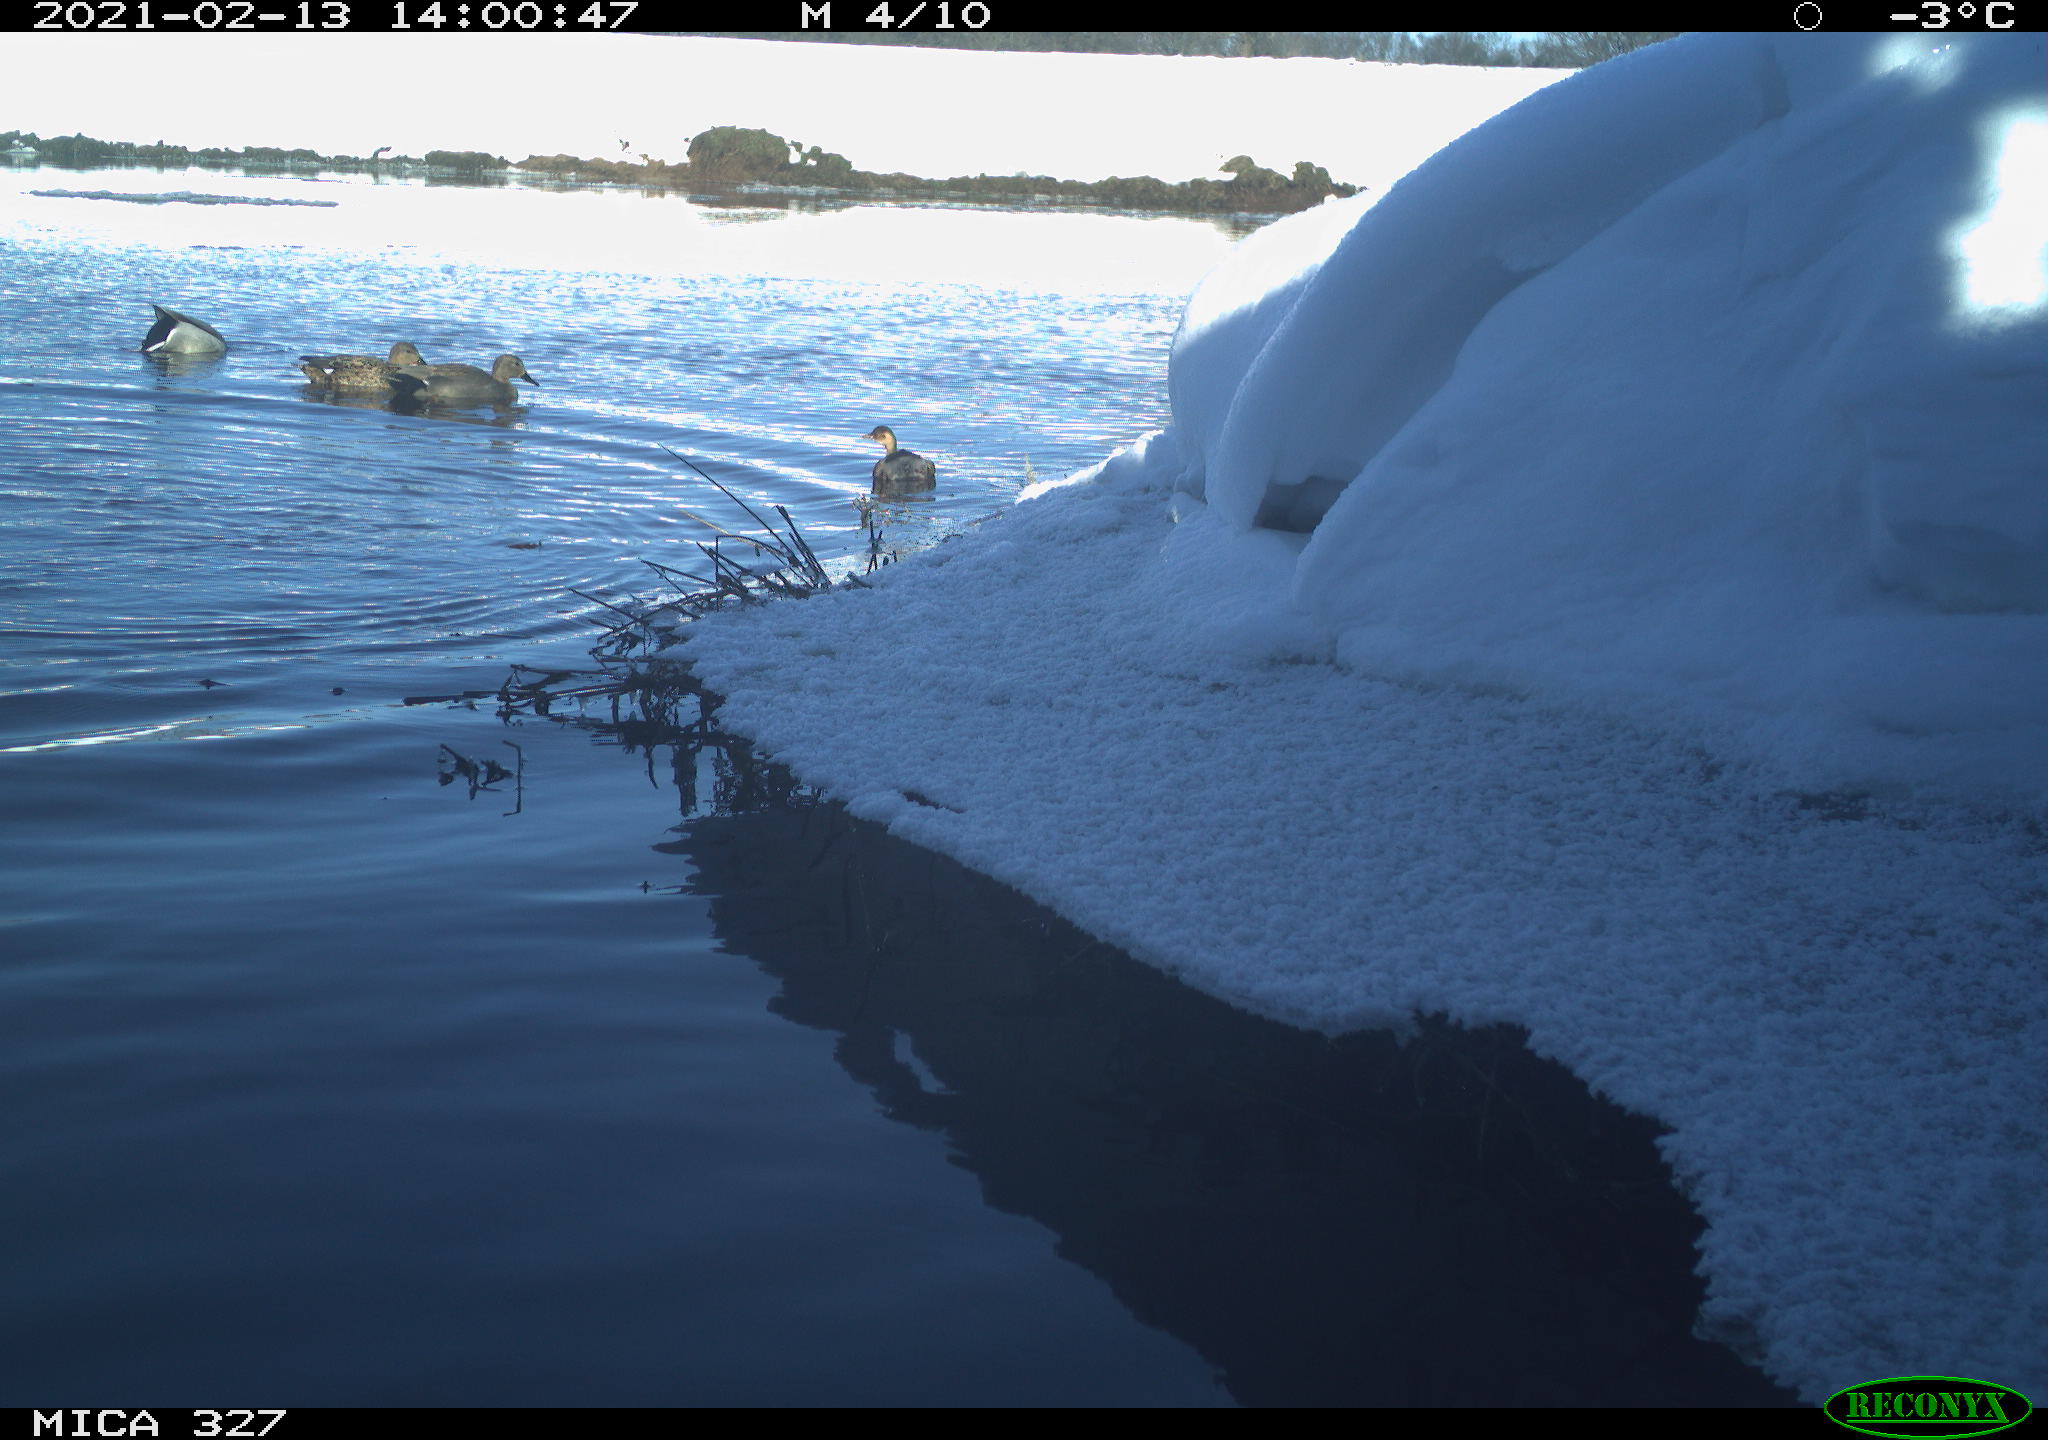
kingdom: Animalia
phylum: Chordata
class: Aves
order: Anseriformes
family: Anatidae
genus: Anas
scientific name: Anas
